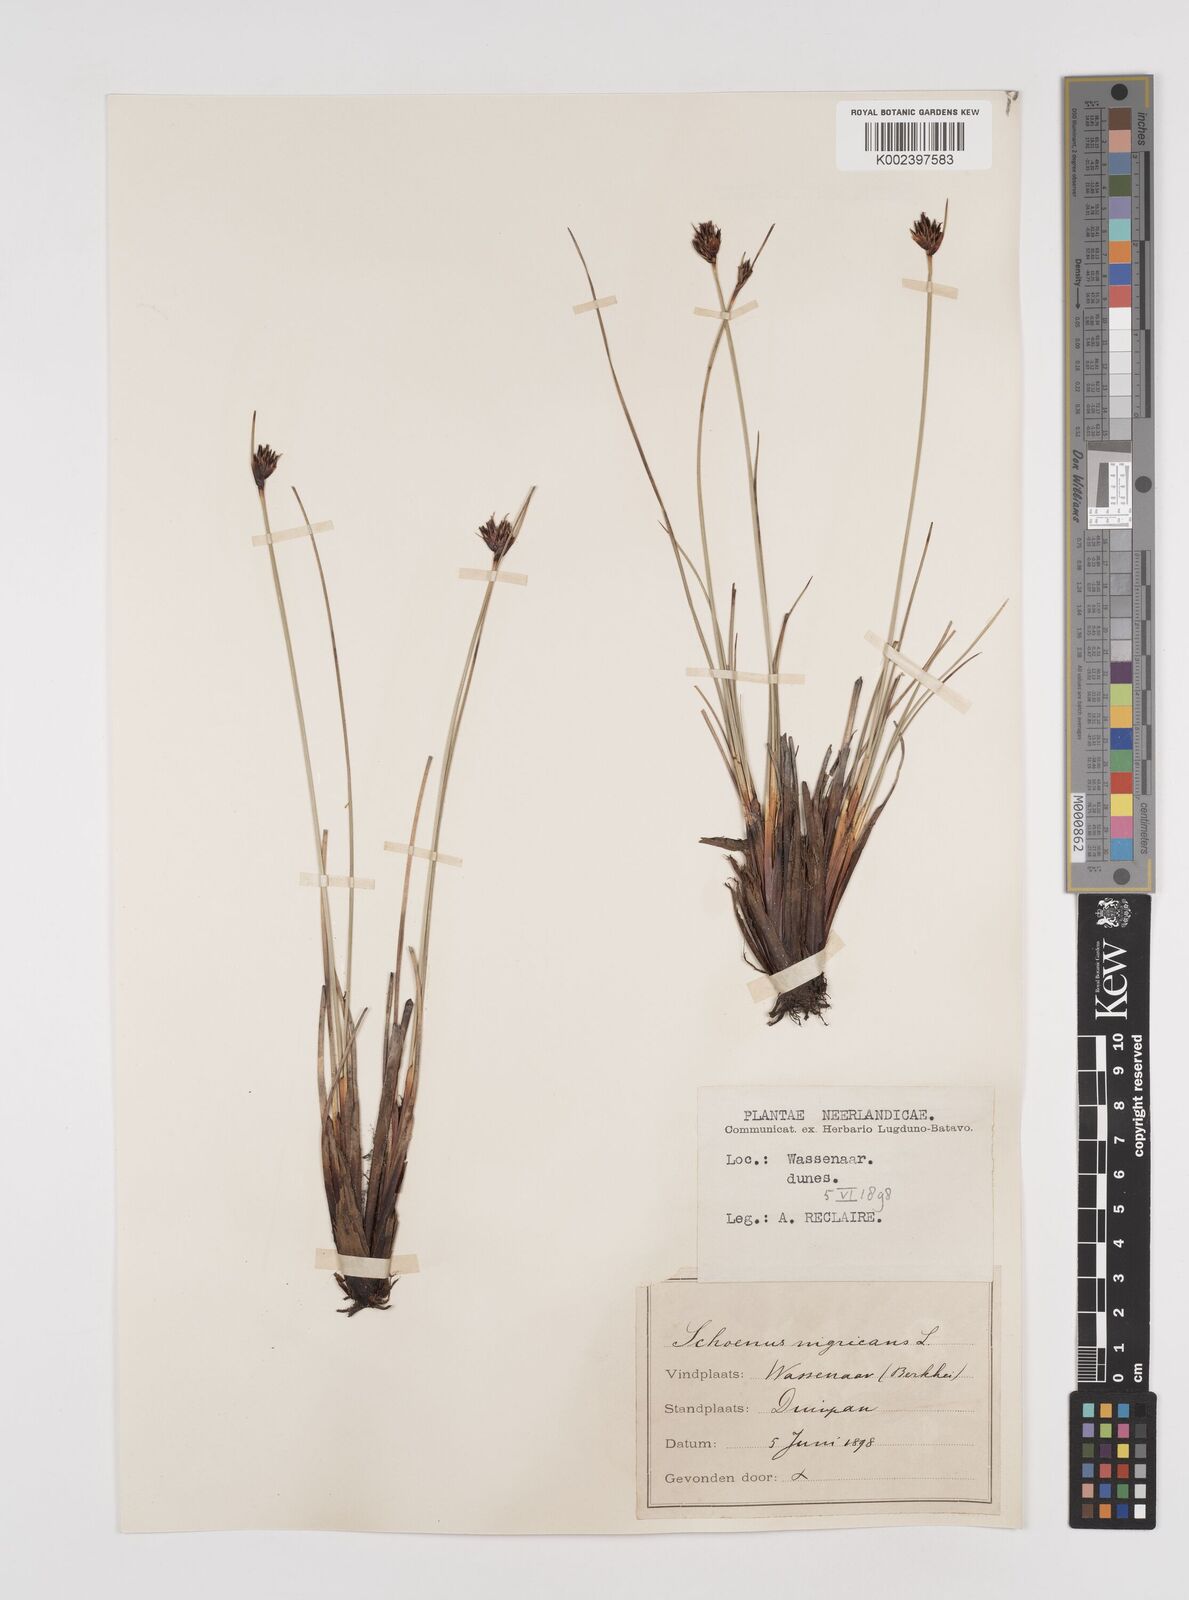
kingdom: Plantae
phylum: Tracheophyta
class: Liliopsida
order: Poales
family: Cyperaceae
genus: Schoenus
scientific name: Schoenus nigricans
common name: Black bog-rush
